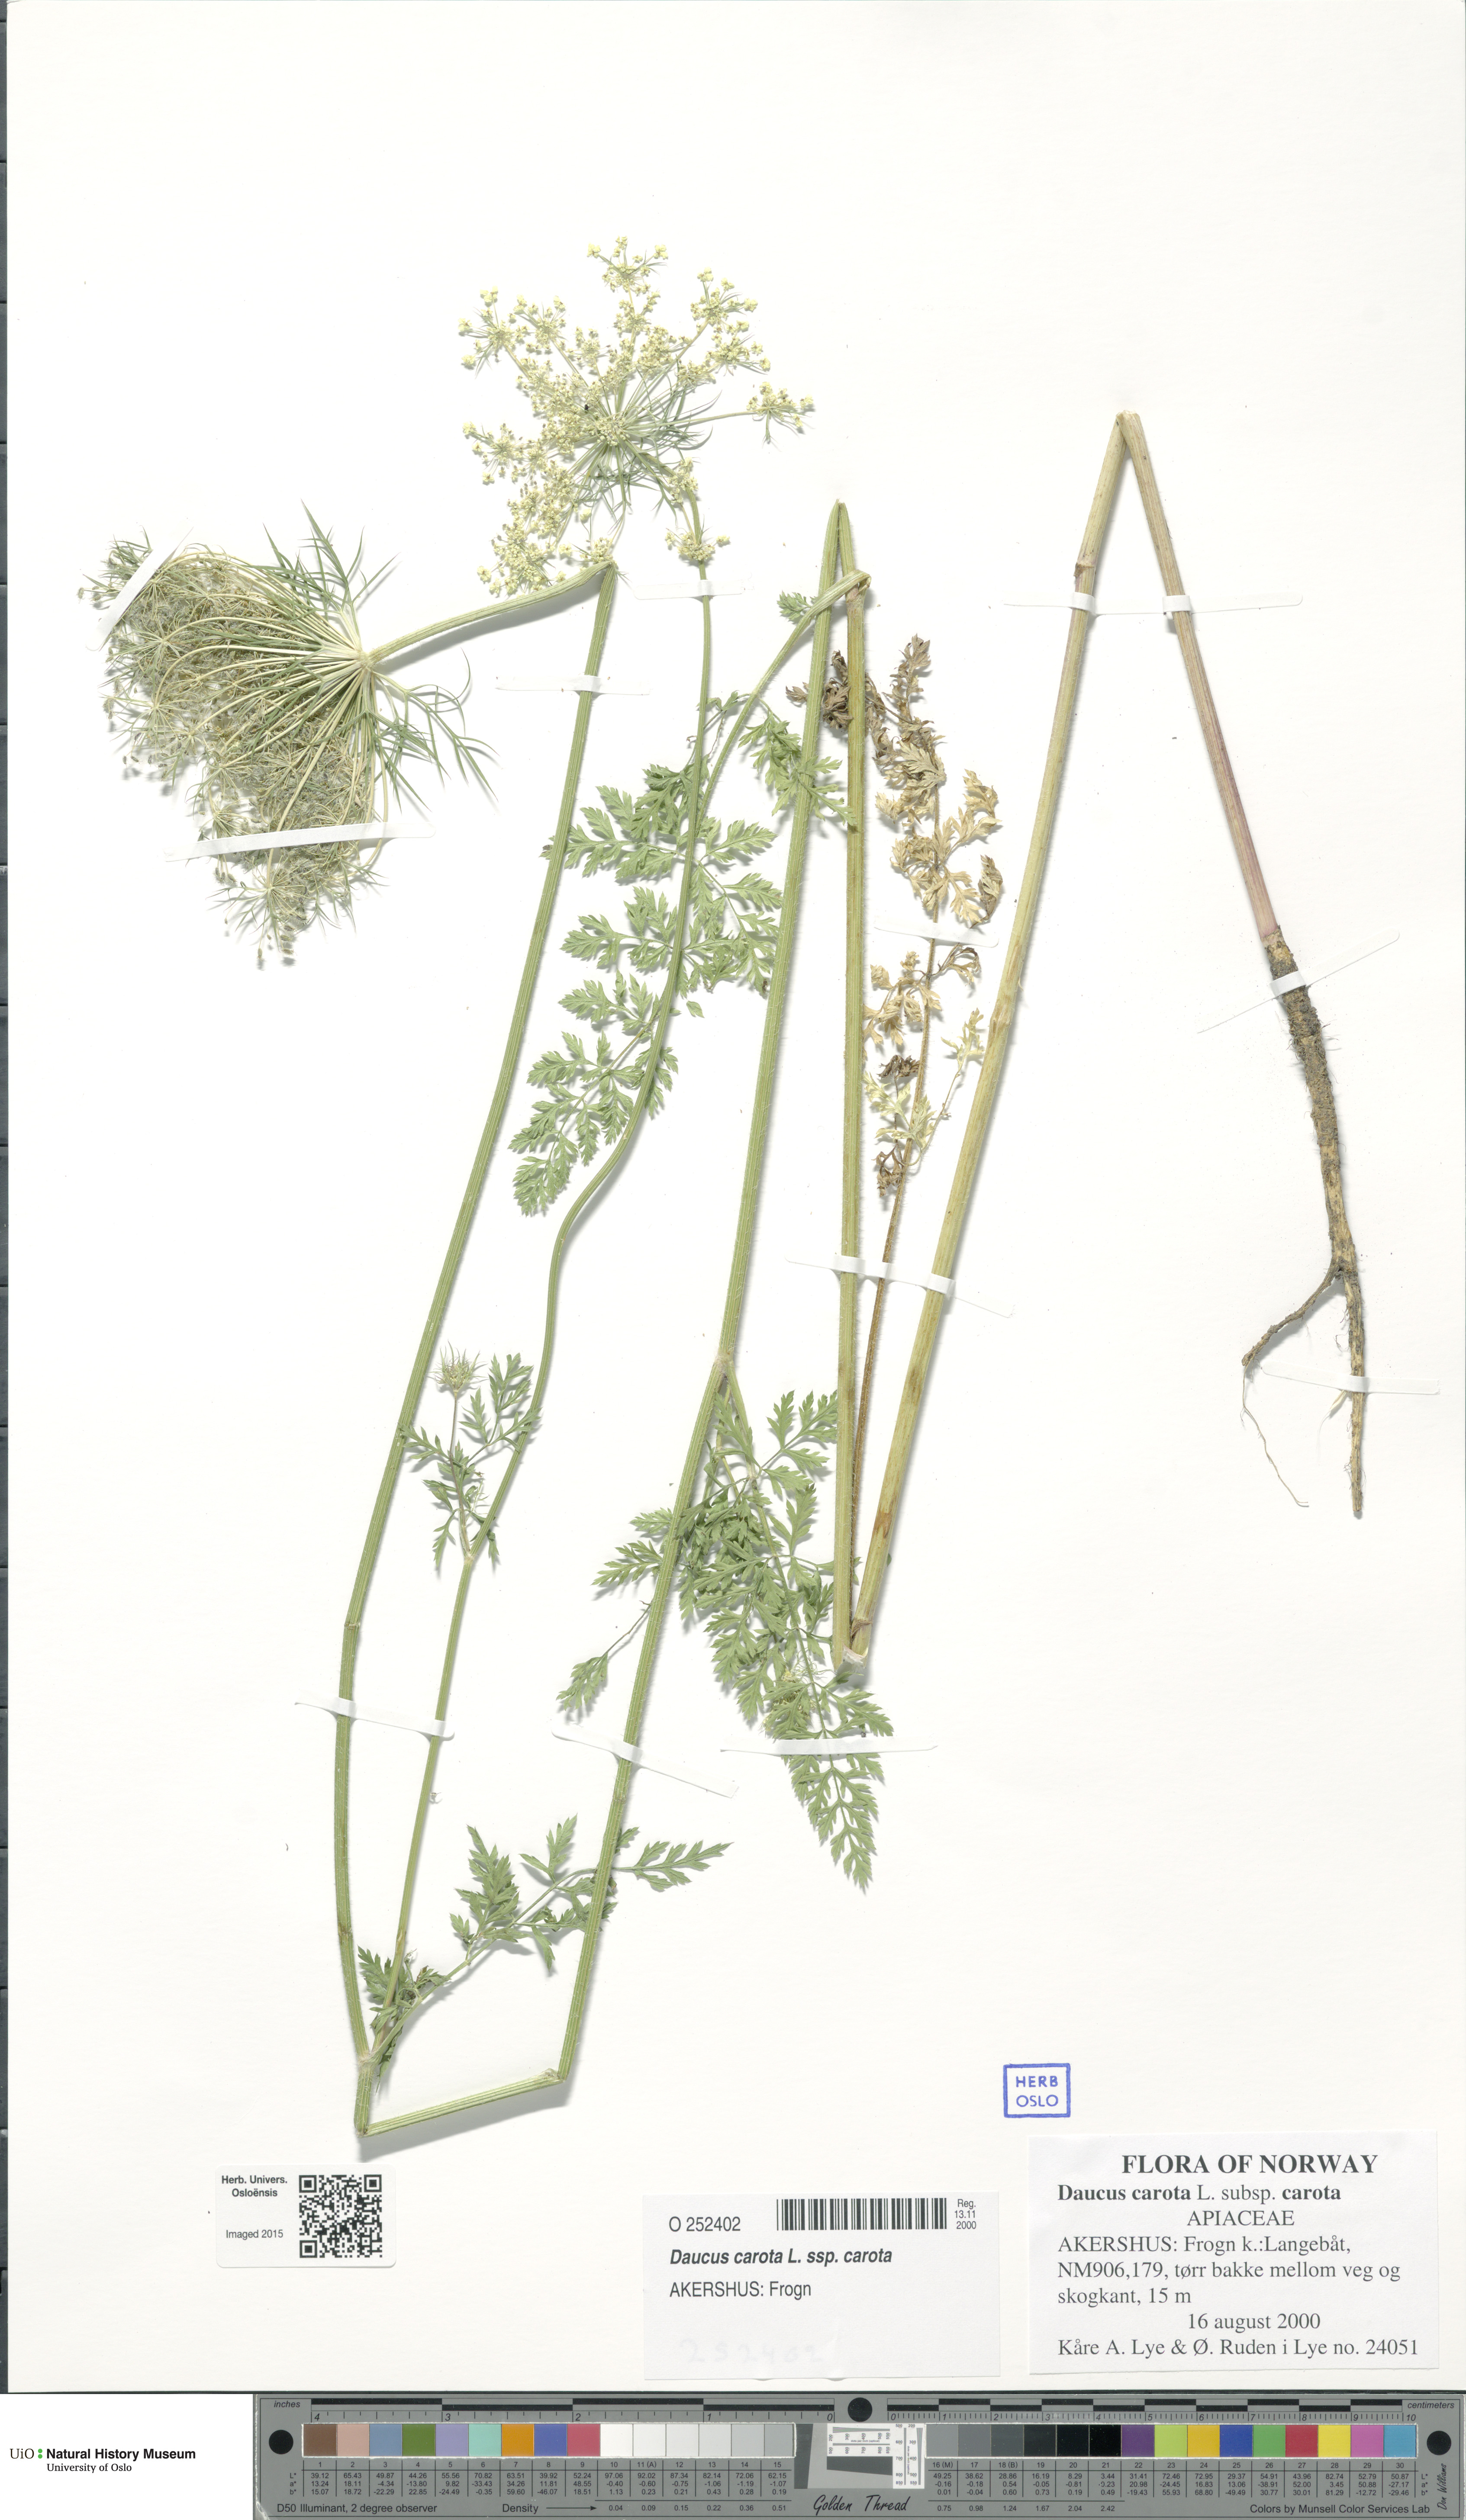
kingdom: Plantae
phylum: Tracheophyta
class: Magnoliopsida
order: Apiales
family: Apiaceae
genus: Daucus
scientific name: Daucus carota
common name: Wild carrot
